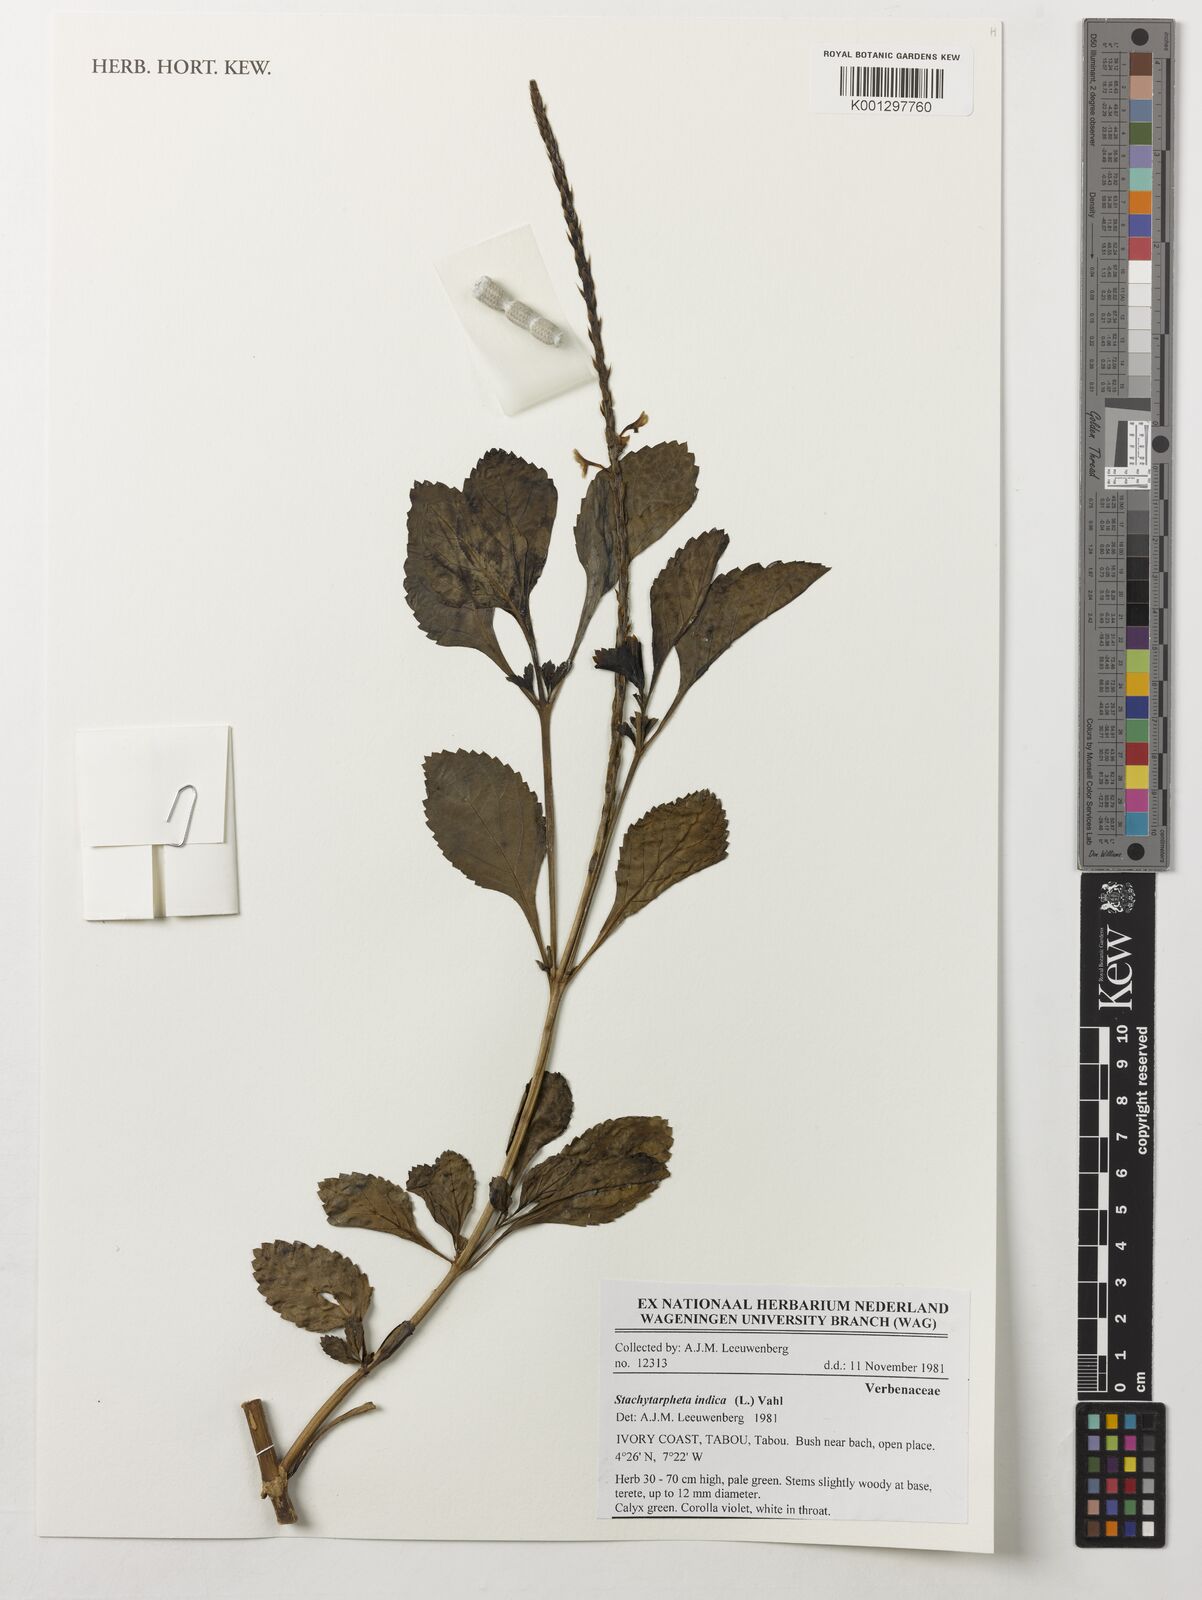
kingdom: Plantae
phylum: Tracheophyta
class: Magnoliopsida
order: Lamiales
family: Verbenaceae
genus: Stachytarpheta
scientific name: Stachytarpheta indica
